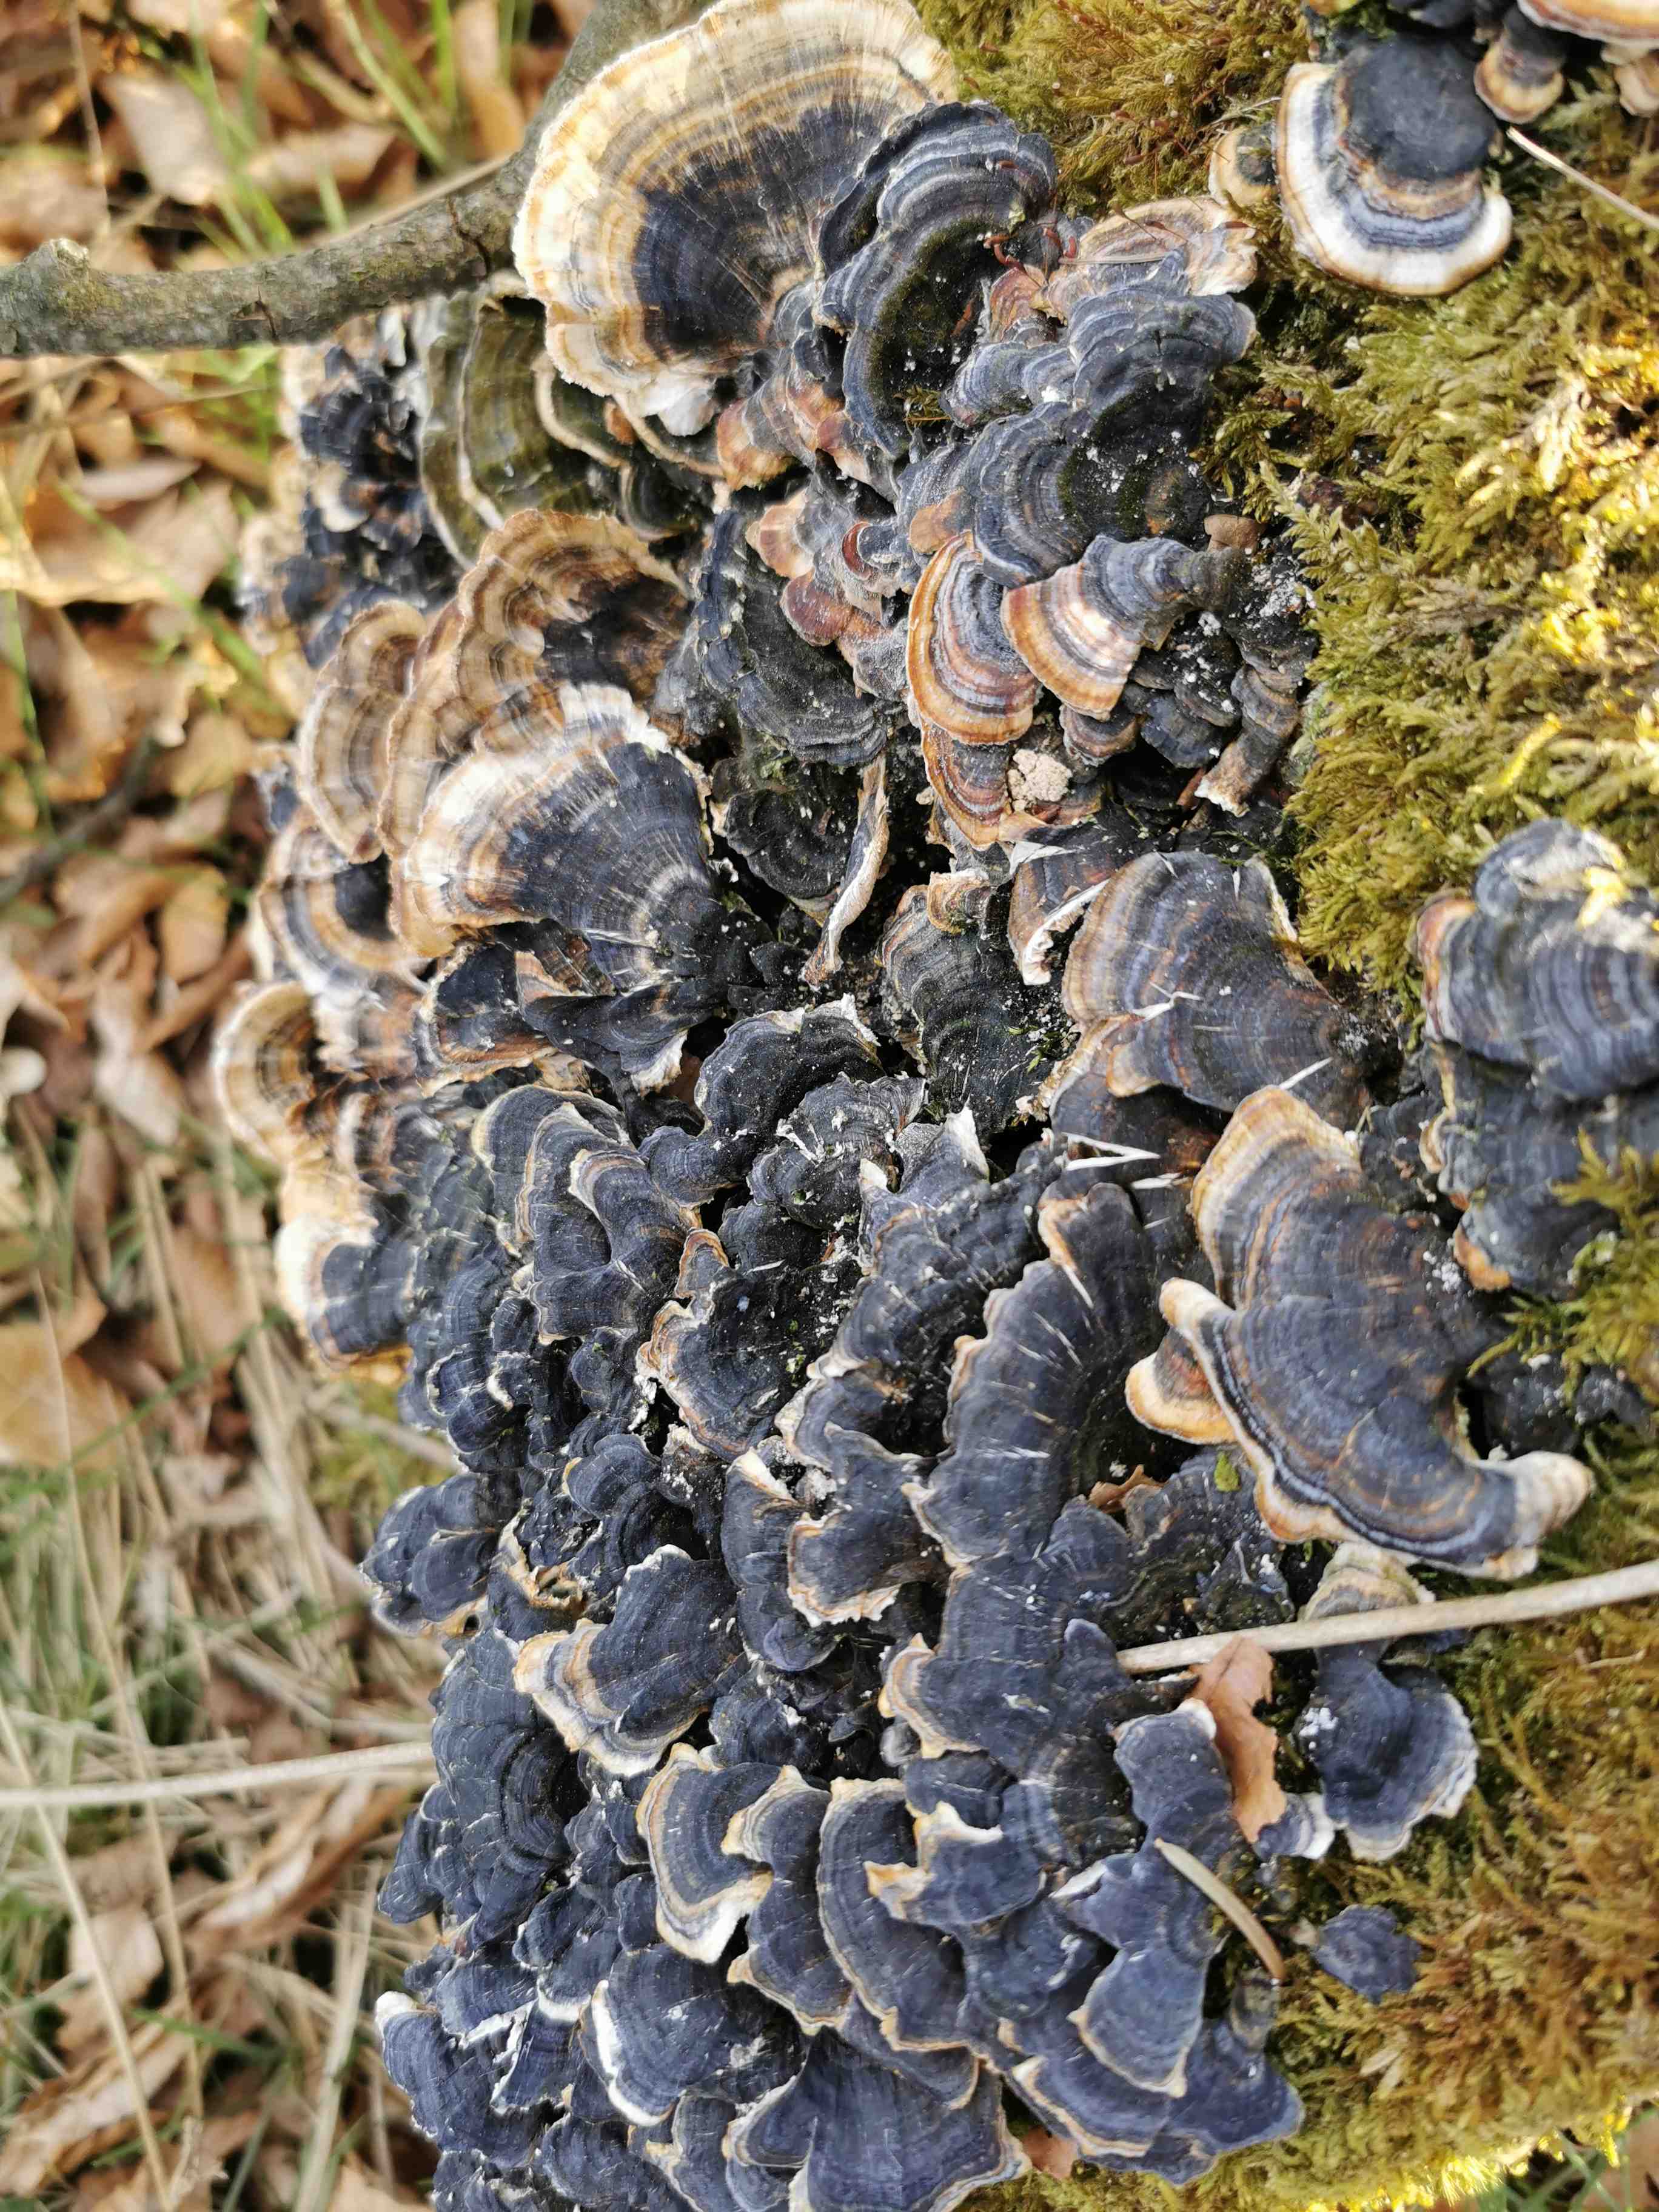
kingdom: Fungi
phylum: Basidiomycota
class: Agaricomycetes
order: Polyporales
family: Polyporaceae
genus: Trametes
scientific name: Trametes versicolor
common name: broget læderporesvamp
